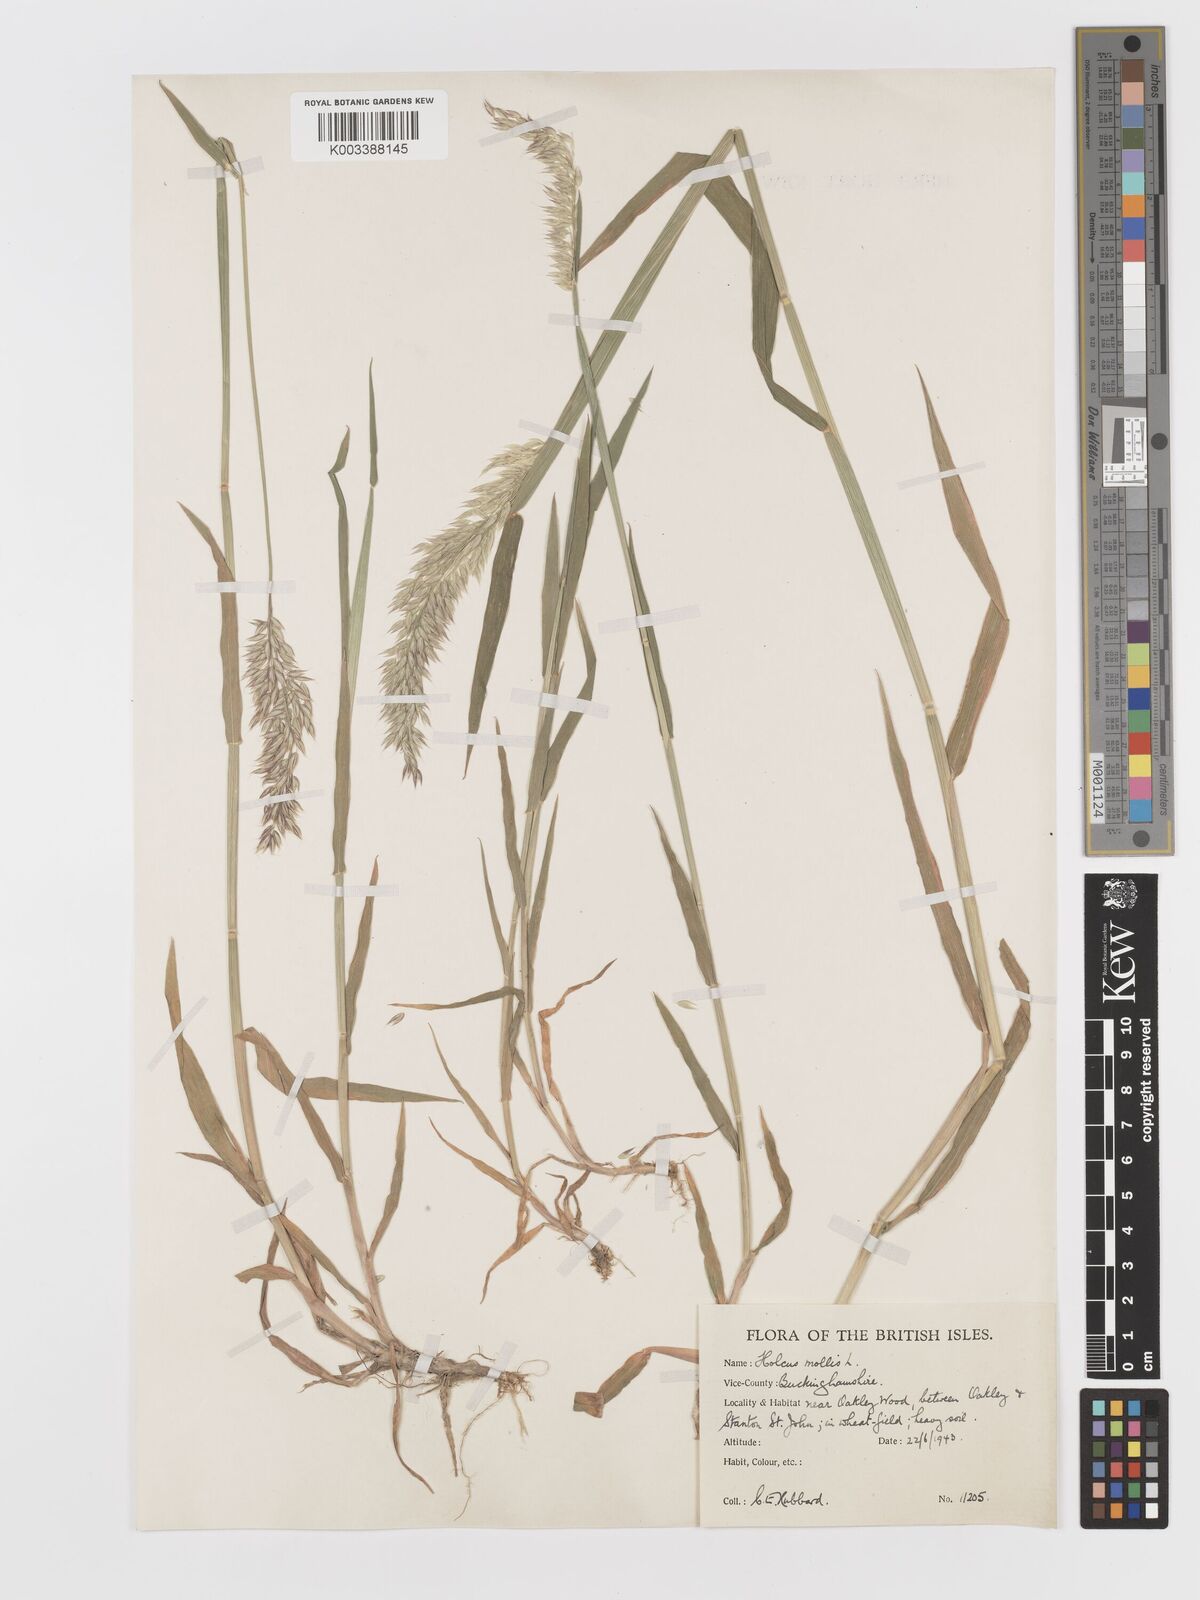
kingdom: Plantae
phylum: Tracheophyta
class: Liliopsida
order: Poales
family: Poaceae
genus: Holcus
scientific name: Holcus mollis
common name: Creeping velvetgrass
